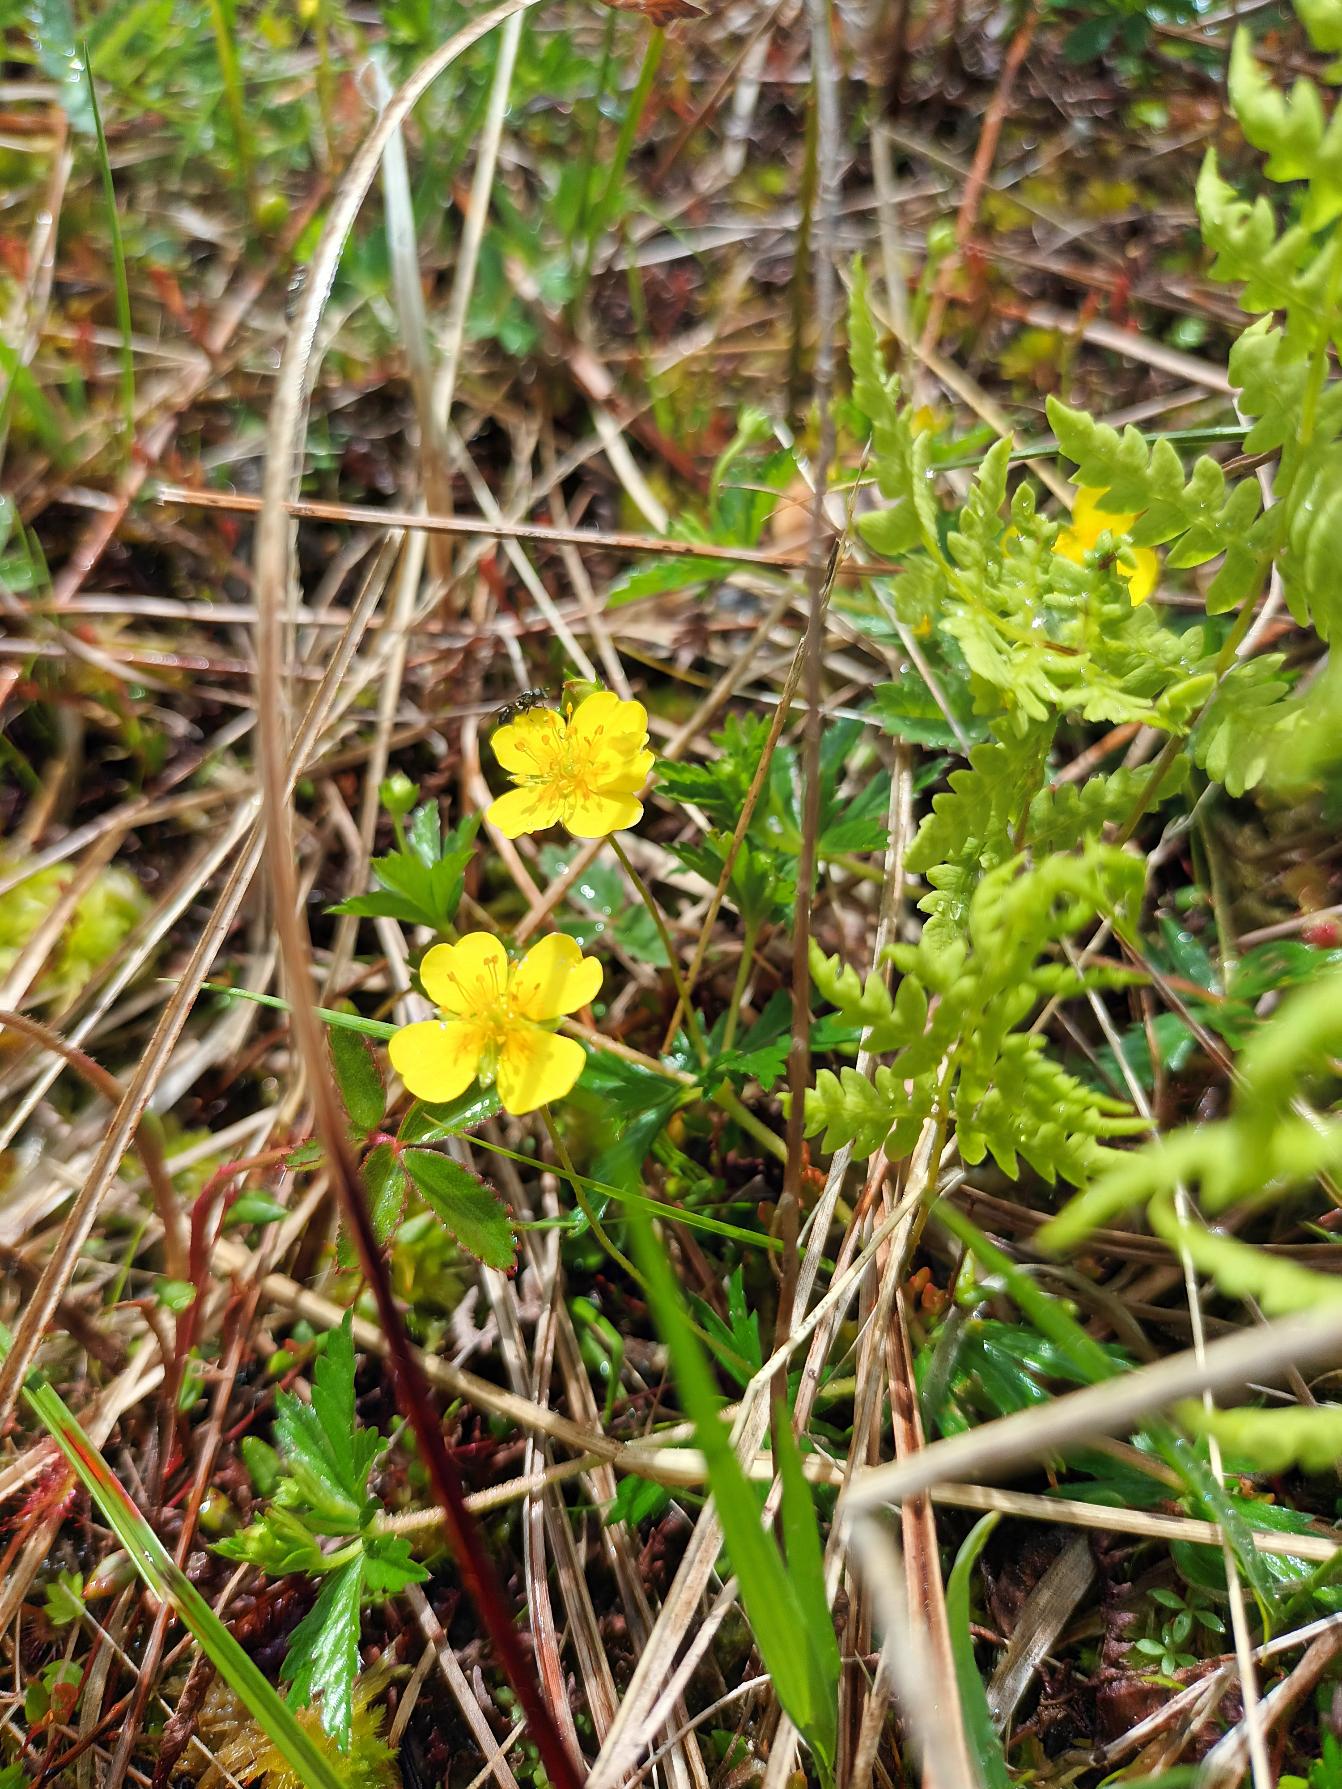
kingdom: Plantae
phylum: Tracheophyta
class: Magnoliopsida
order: Rosales
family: Rosaceae
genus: Potentilla
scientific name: Potentilla erecta
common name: Tormentil
